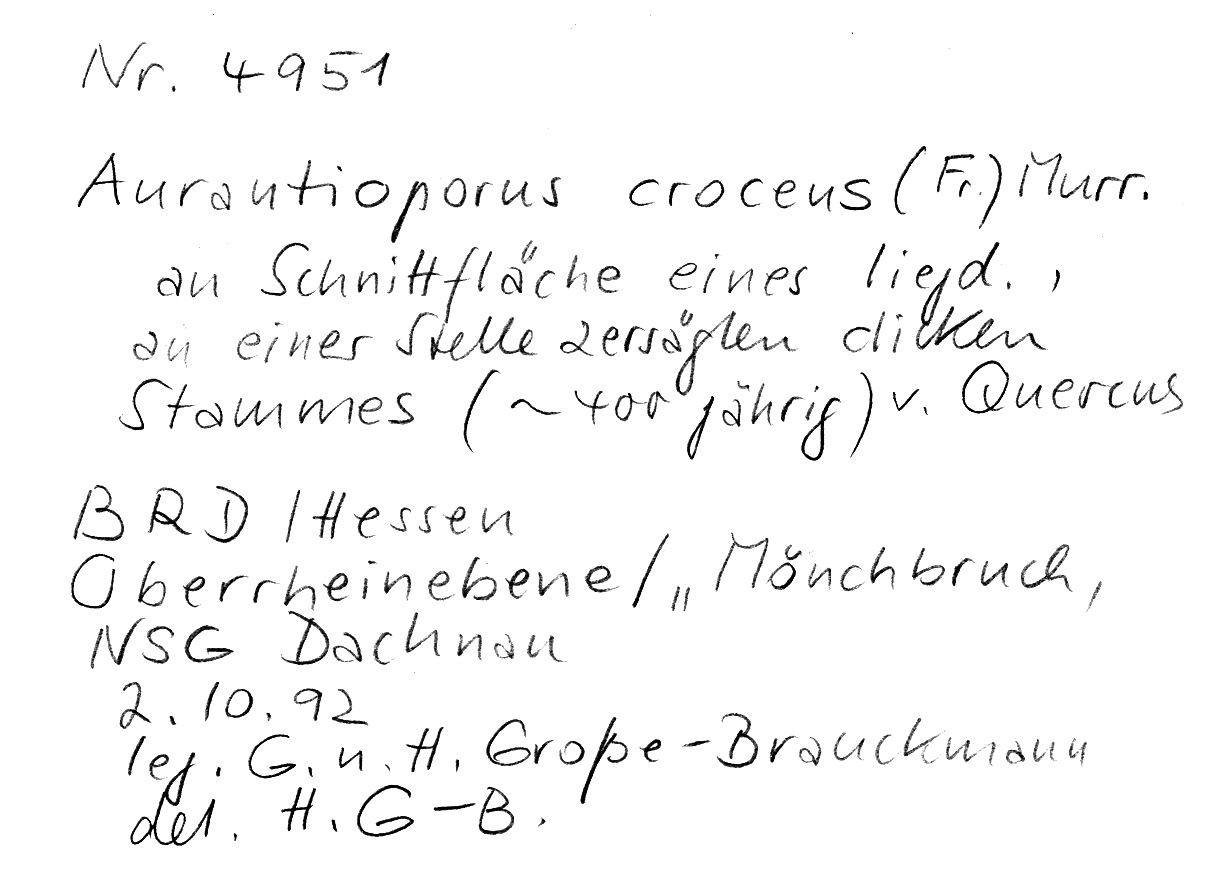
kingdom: Plantae
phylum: Tracheophyta
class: Magnoliopsida
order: Fagales
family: Fagaceae
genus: Quercus
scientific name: Quercus
